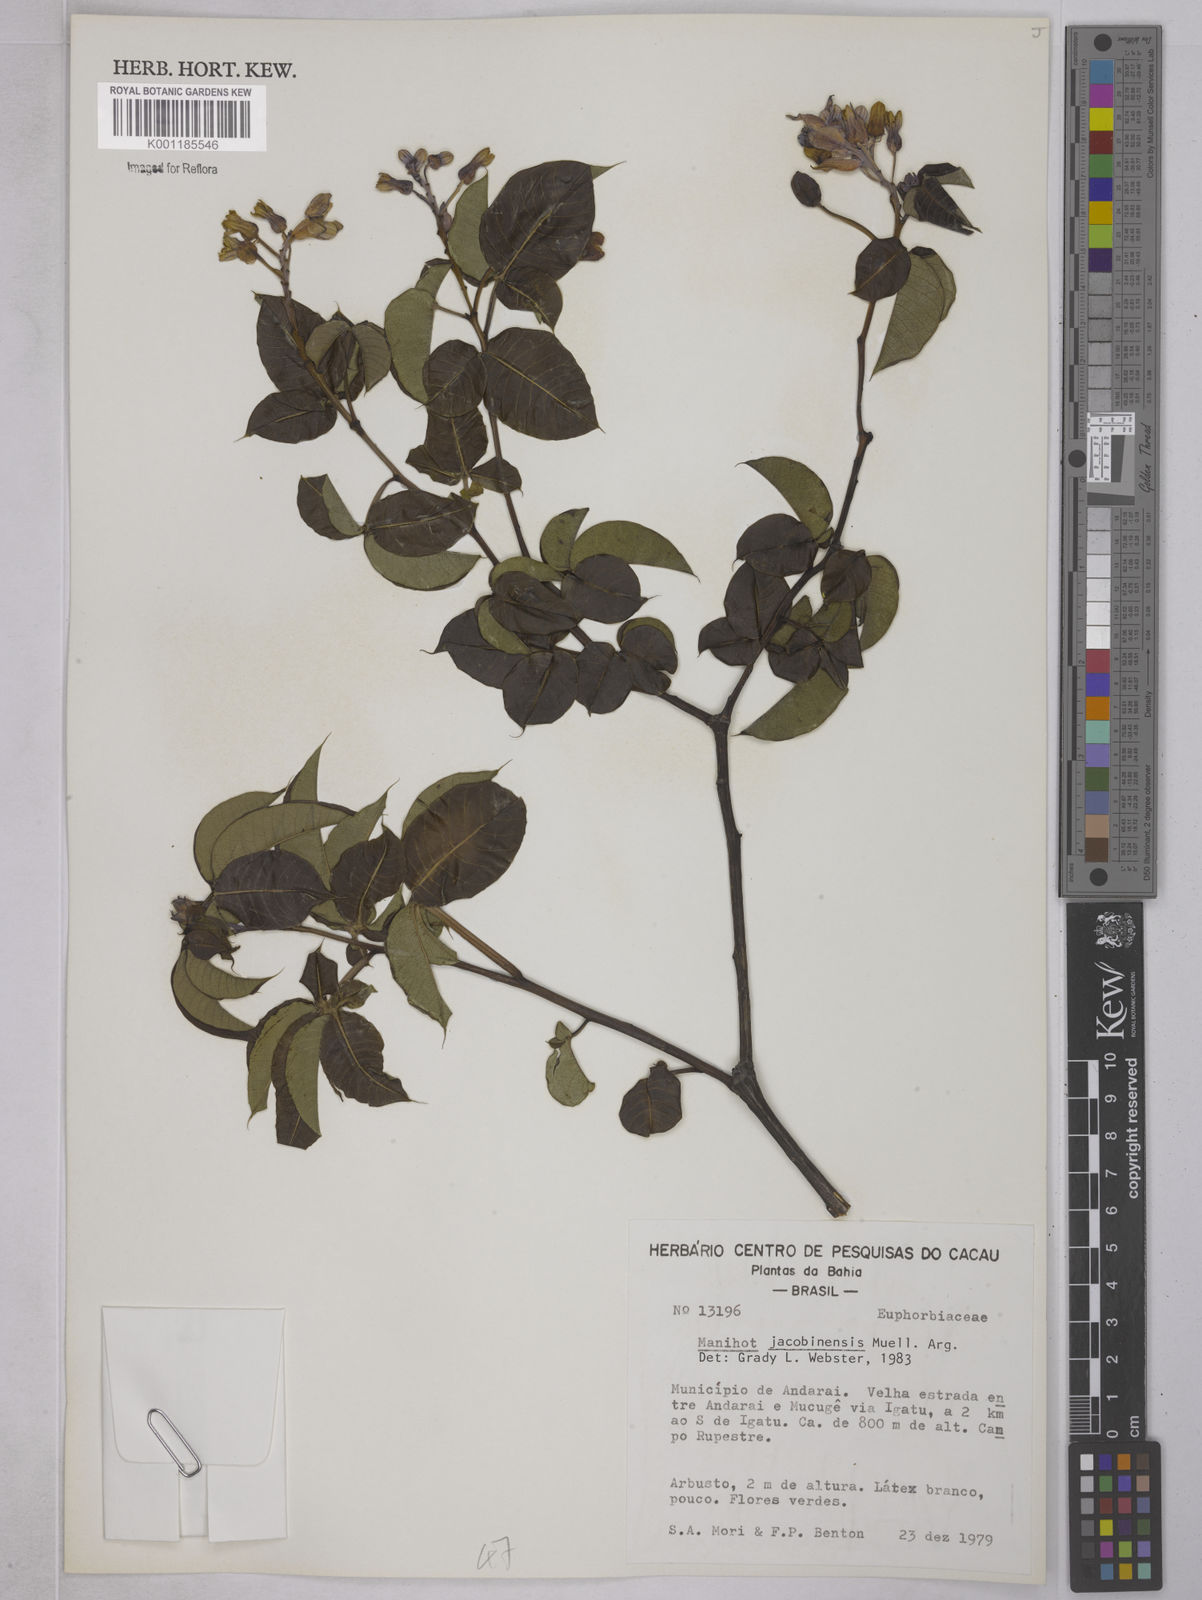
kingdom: Plantae
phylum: Tracheophyta
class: Magnoliopsida
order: Malpighiales
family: Euphorbiaceae
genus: Manihot
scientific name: Manihot
